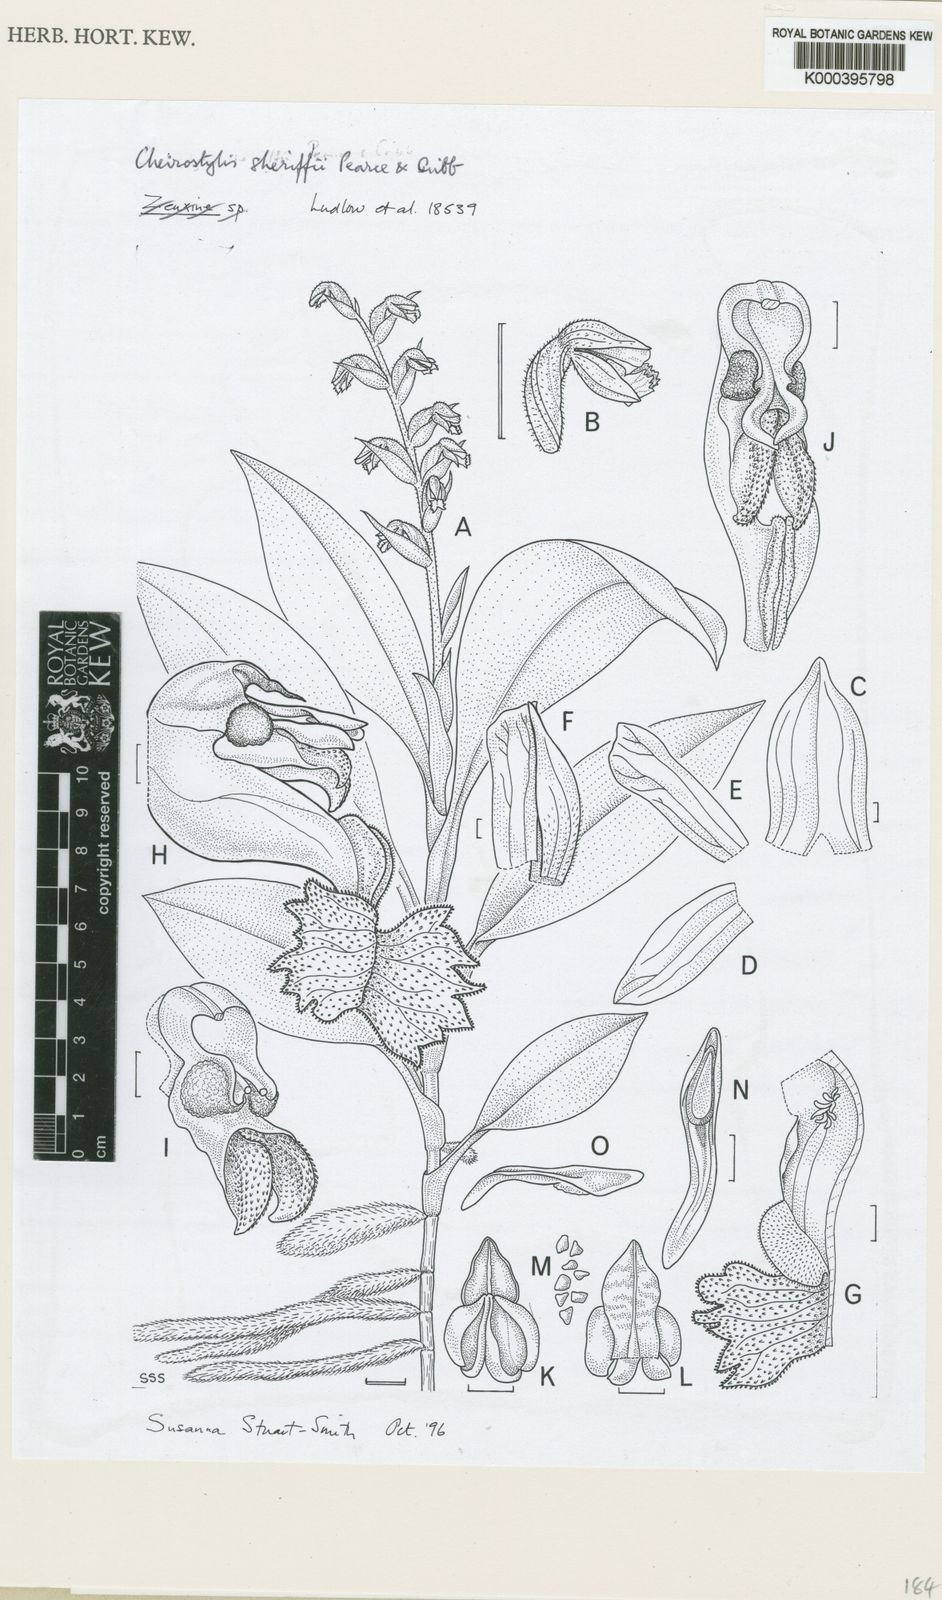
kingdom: Plantae
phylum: Tracheophyta
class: Liliopsida
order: Asparagales
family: Orchidaceae
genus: Cheirostylis
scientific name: Cheirostylis sherriffii
